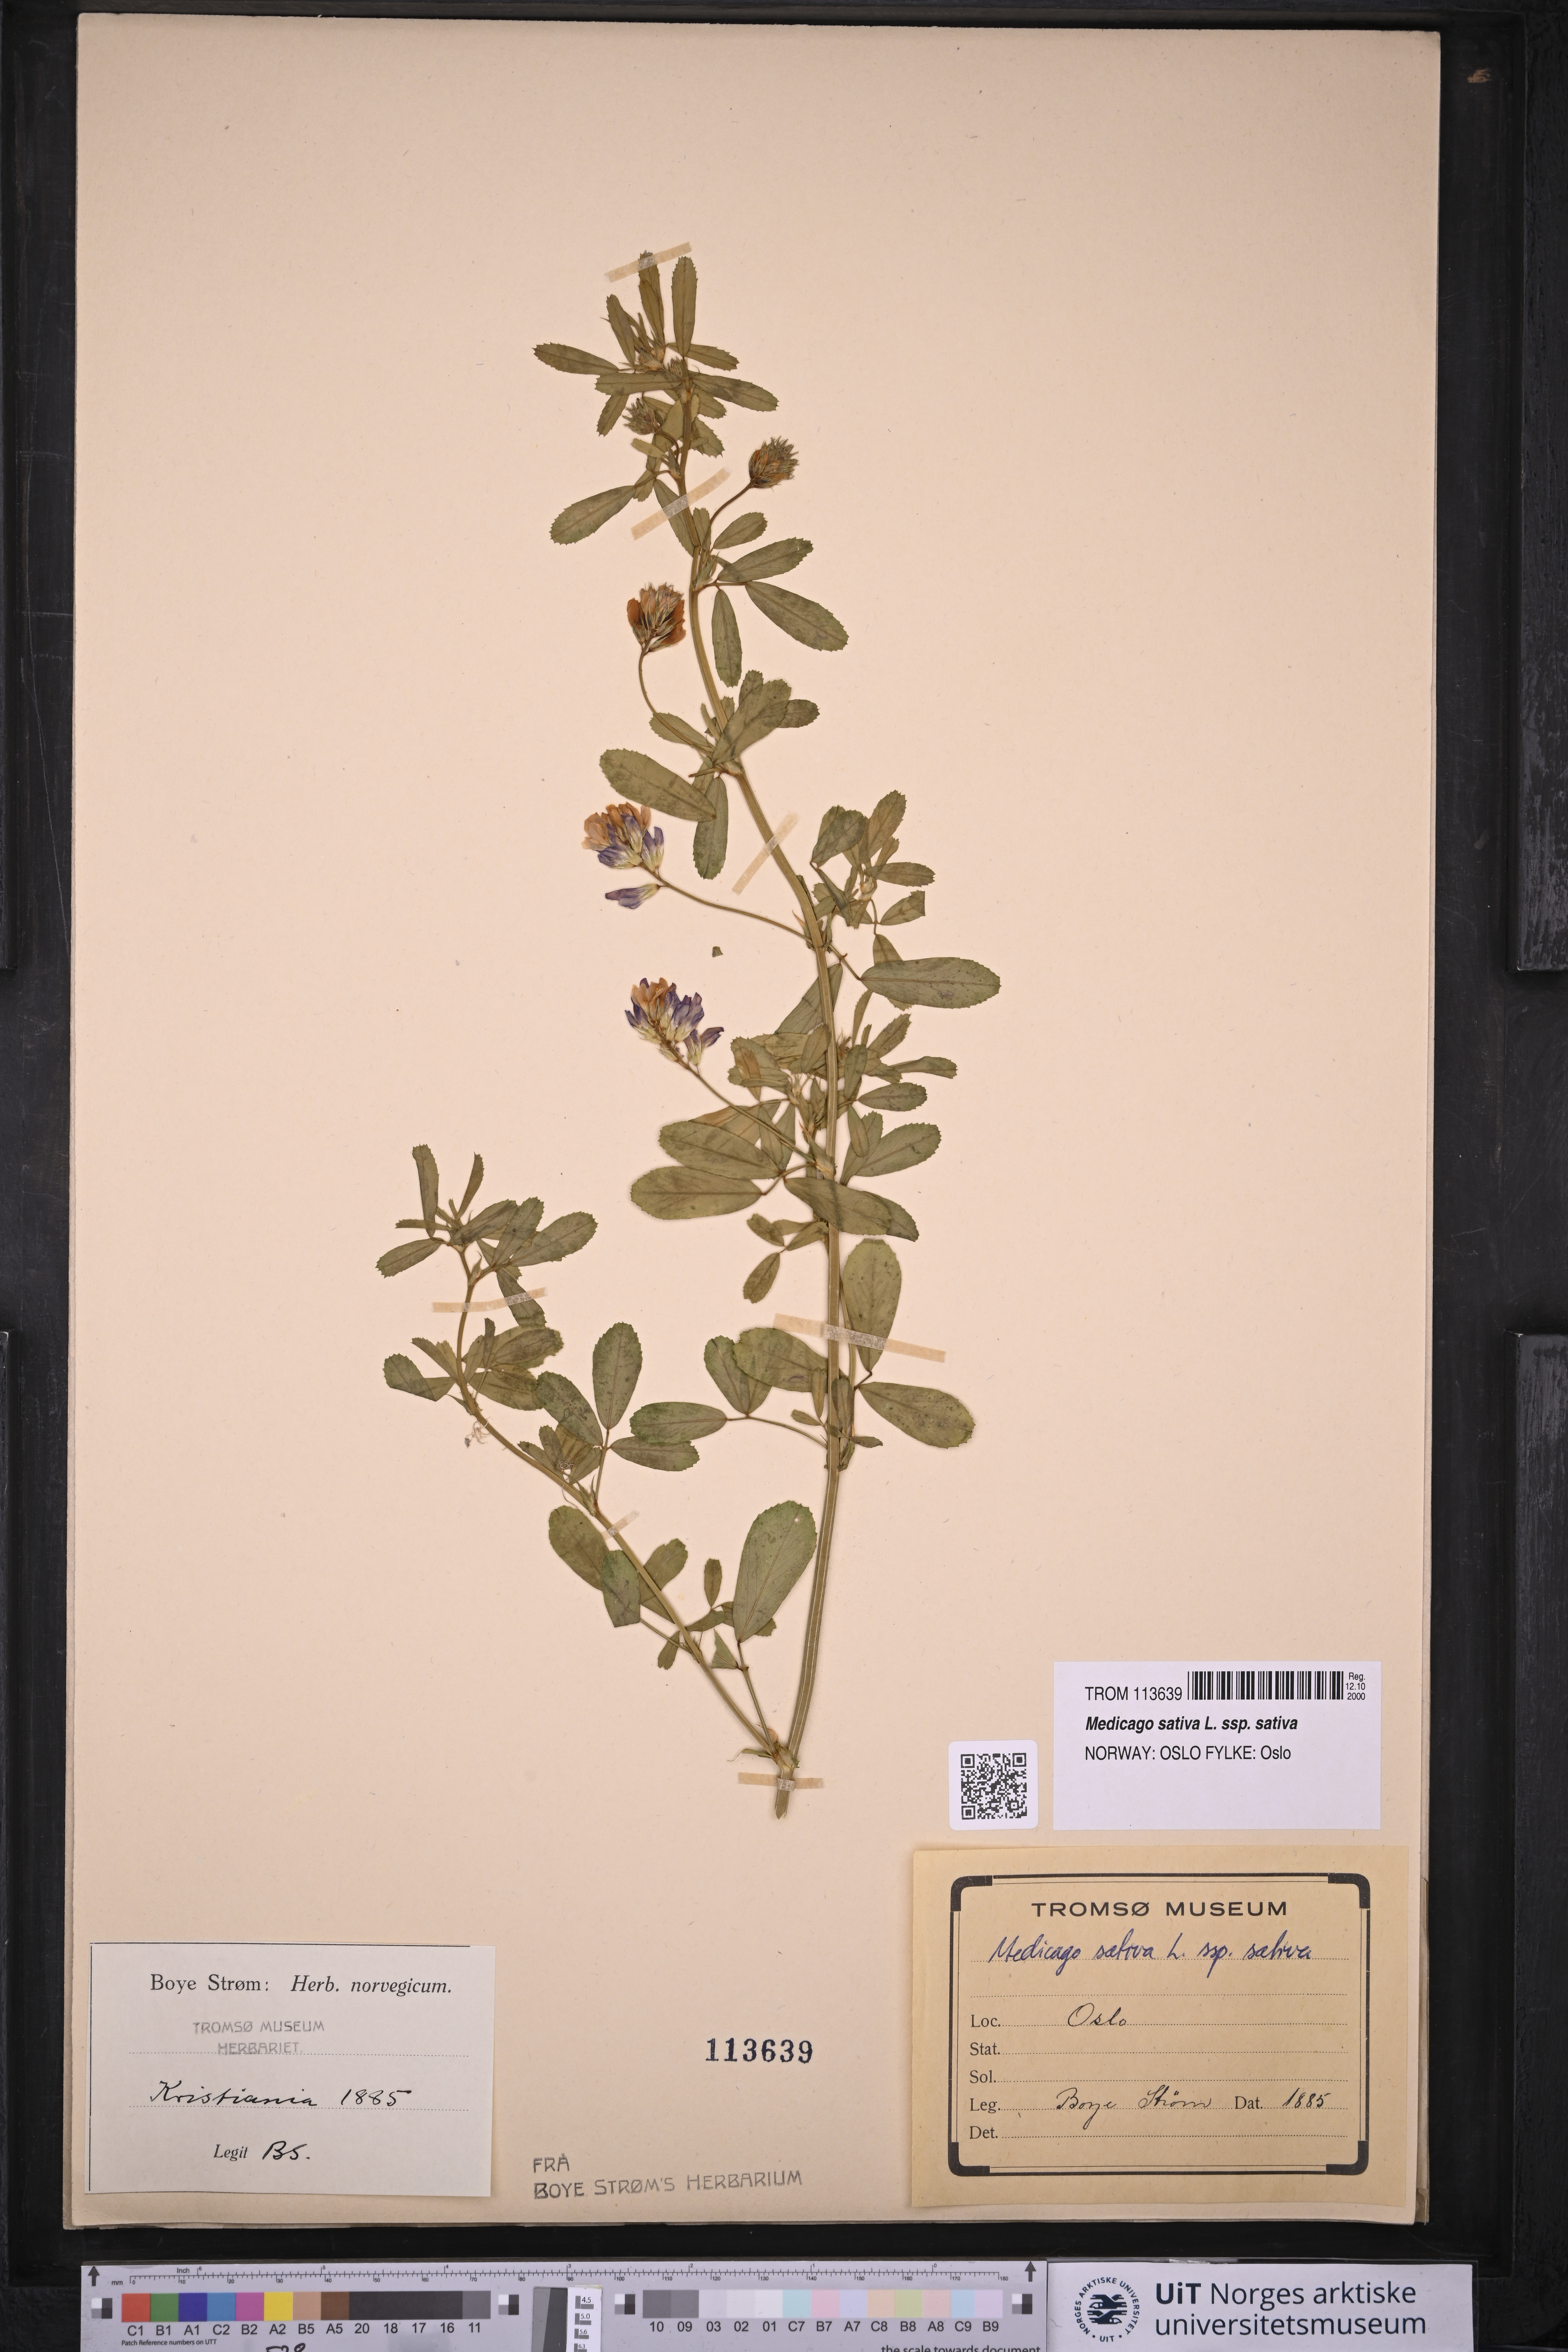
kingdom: Plantae
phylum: Tracheophyta
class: Magnoliopsida
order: Fabales
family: Fabaceae
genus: Medicago
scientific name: Medicago sativa
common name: Alfalfa
